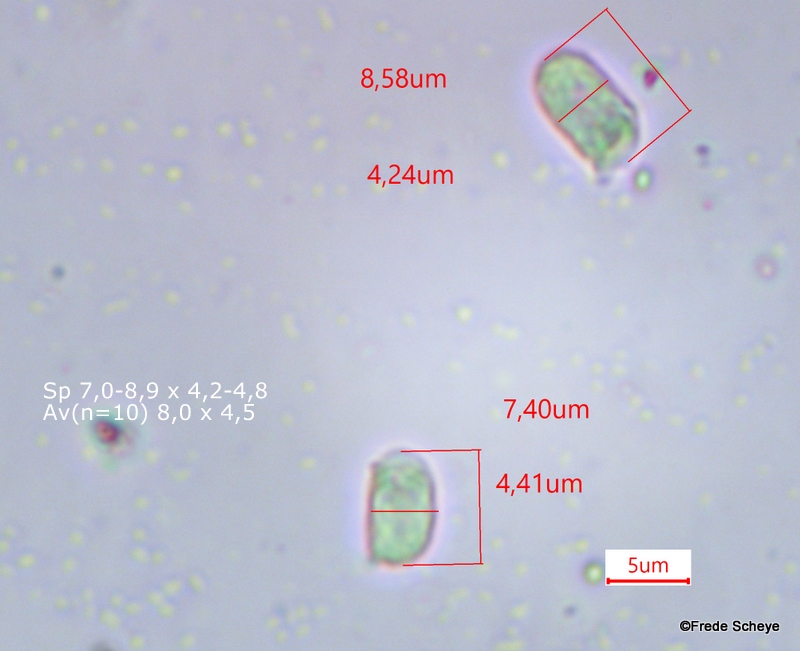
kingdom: Fungi
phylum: Basidiomycota
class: Agaricomycetes
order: Agaricales
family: Hygrophoraceae
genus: Hygrocybe
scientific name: Hygrocybe ceracea
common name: voksgul vokshat
